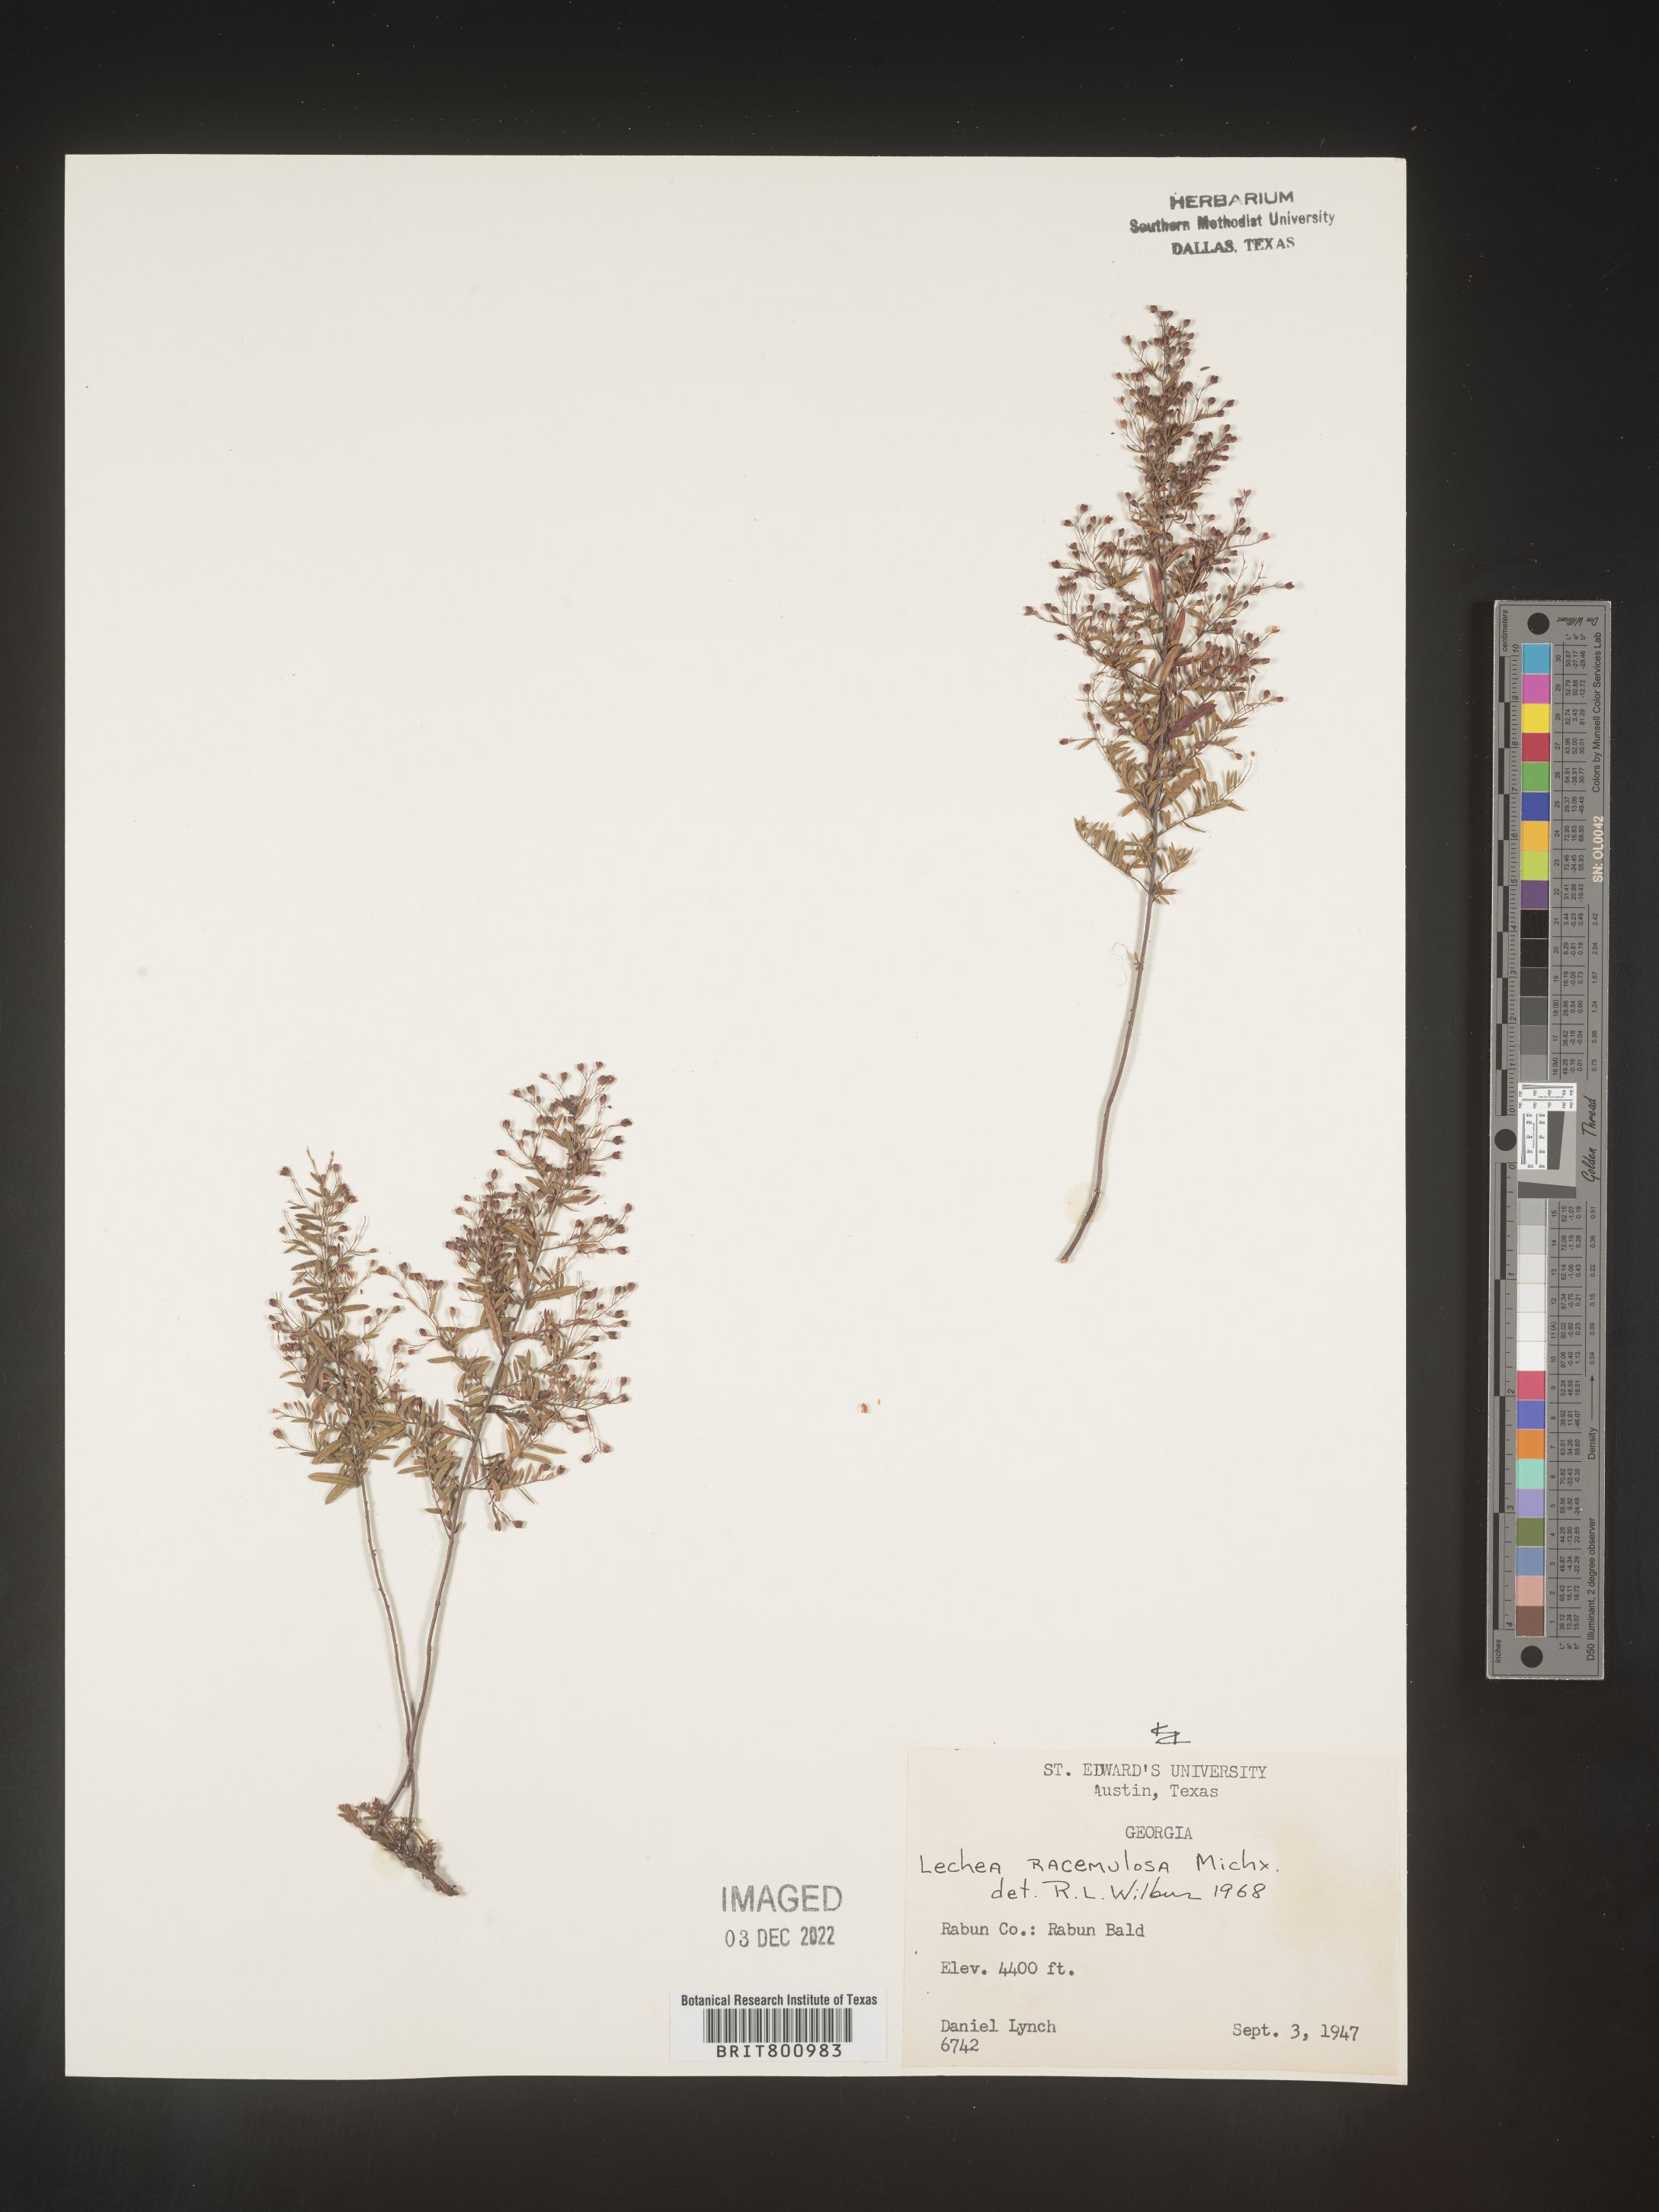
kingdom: Plantae
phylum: Tracheophyta
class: Magnoliopsida
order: Malvales
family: Cistaceae
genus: Lechea
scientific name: Lechea racemulosa
